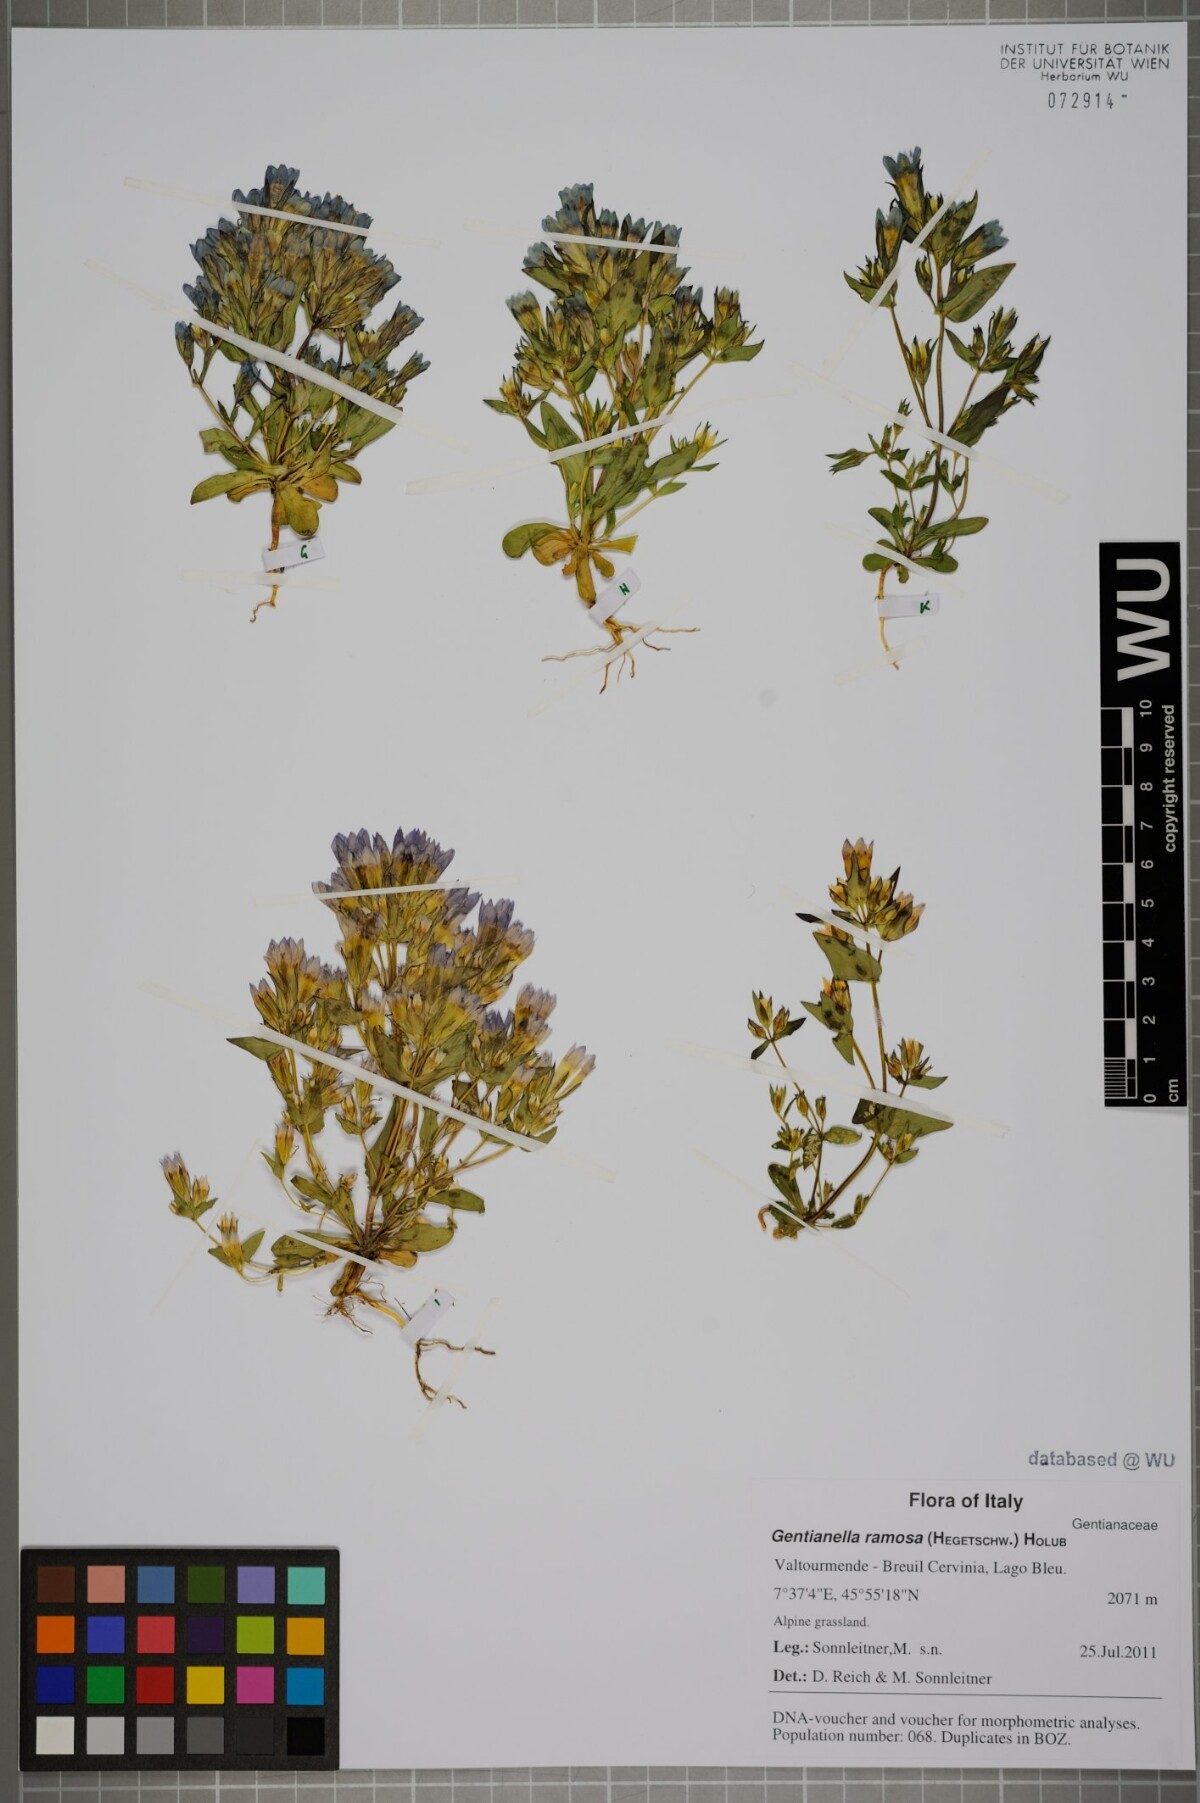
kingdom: Plantae
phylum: Tracheophyta
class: Magnoliopsida
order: Gentianales
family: Gentianaceae
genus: Gentianella
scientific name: Gentianella ramosa
